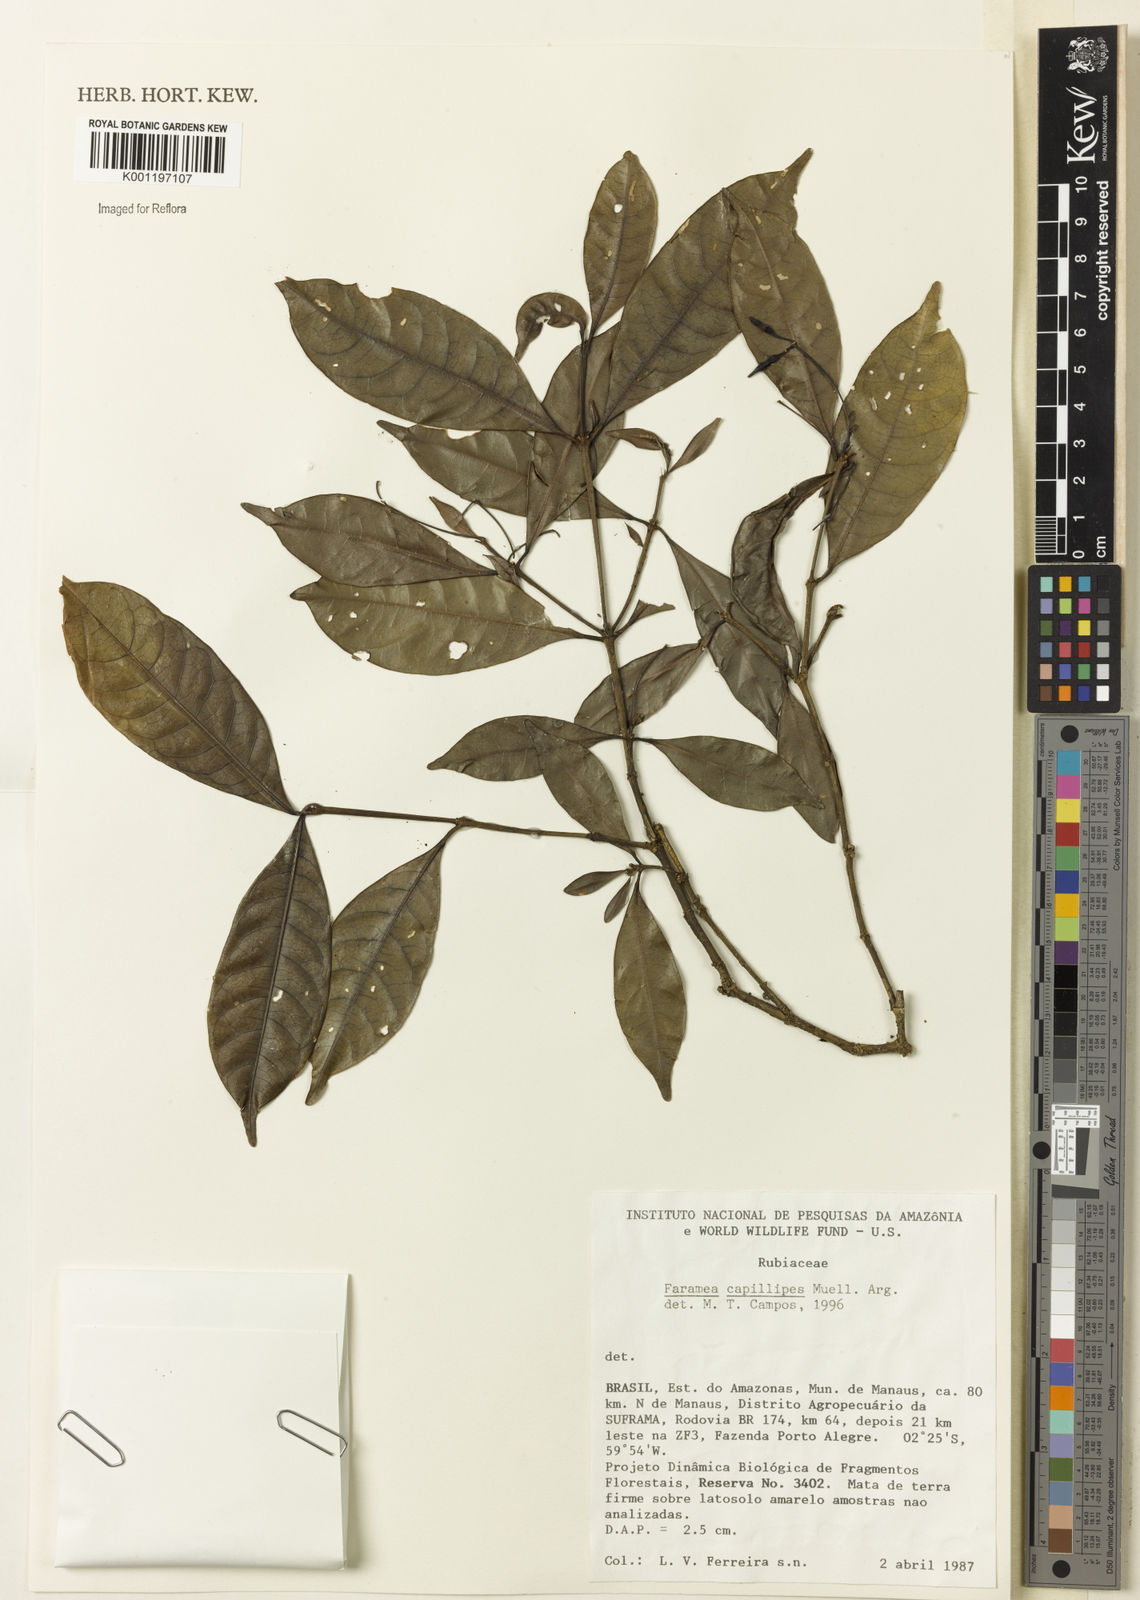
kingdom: Plantae
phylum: Tracheophyta
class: Magnoliopsida
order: Gentianales
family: Rubiaceae
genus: Faramea
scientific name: Faramea
